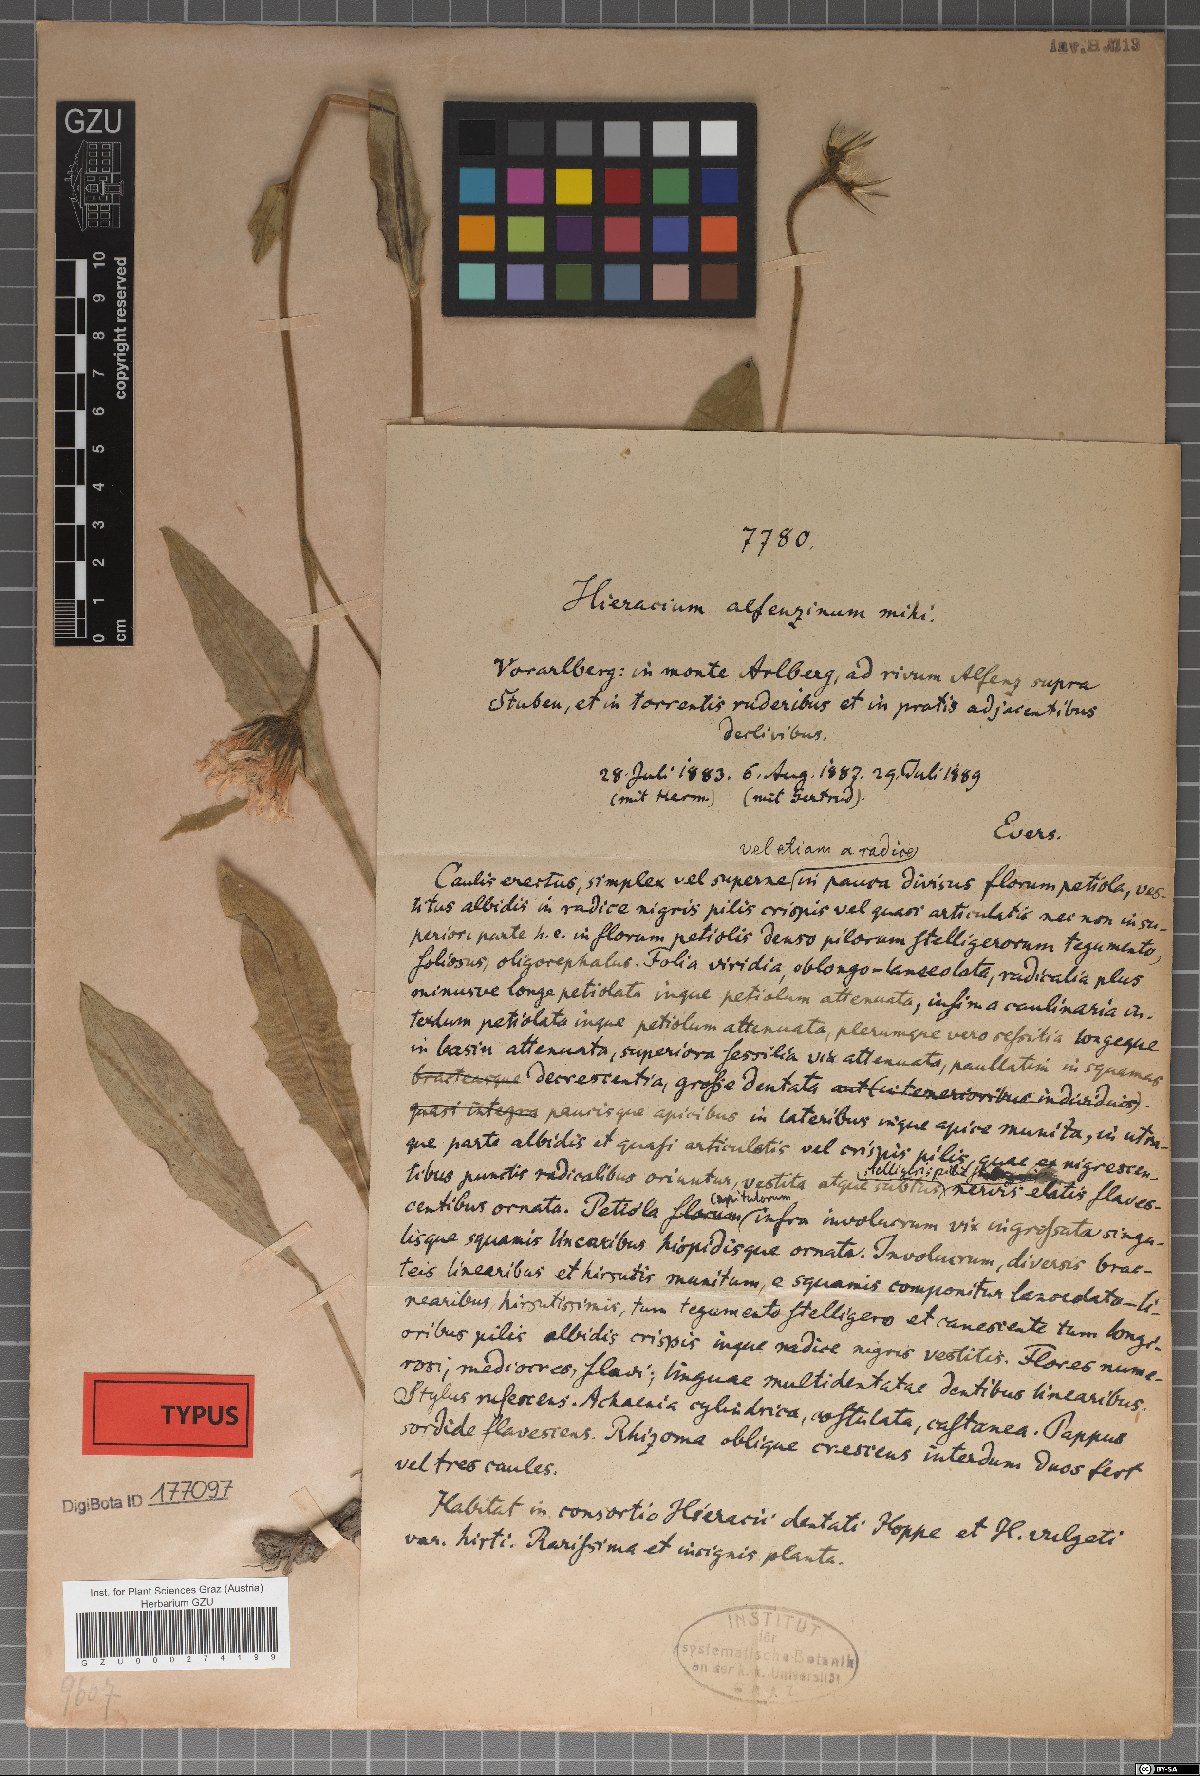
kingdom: Plantae
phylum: Tracheophyta
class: Magnoliopsida
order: Asterales
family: Asteraceae
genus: Hieracium
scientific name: Hieracium porrectum
